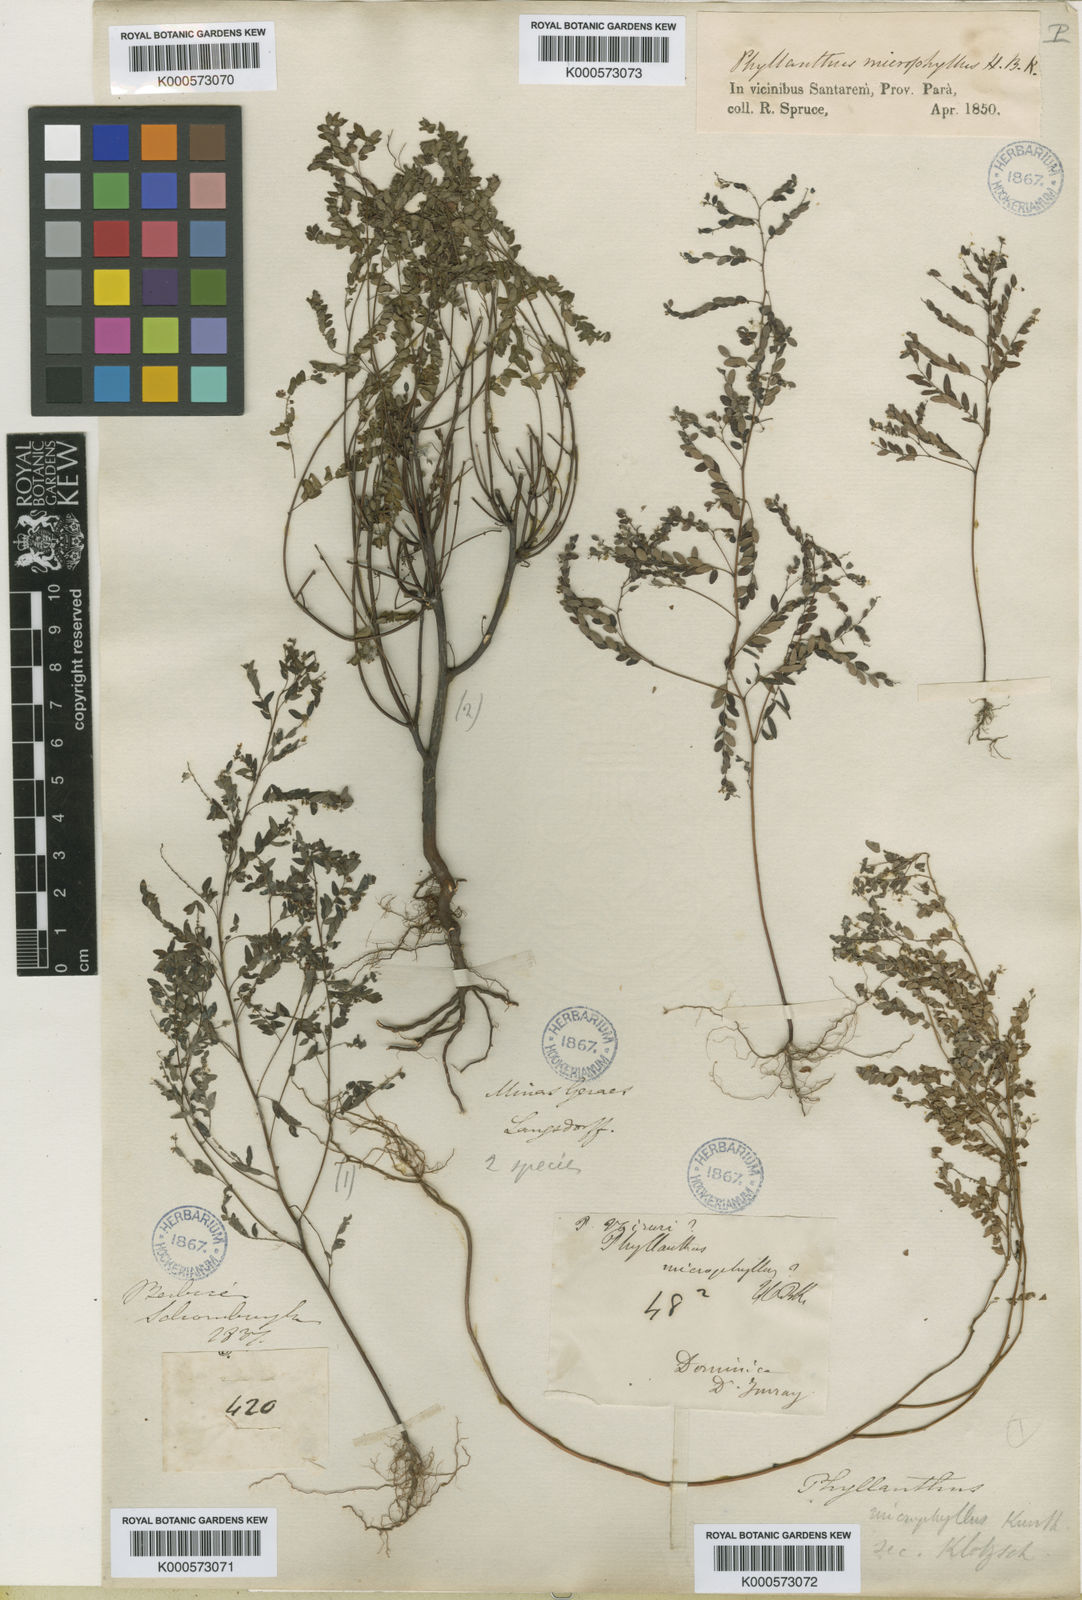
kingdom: Plantae
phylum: Tracheophyta
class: Magnoliopsida
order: Malpighiales
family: Phyllanthaceae
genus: Phyllanthus
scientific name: Phyllanthus stipulatus
